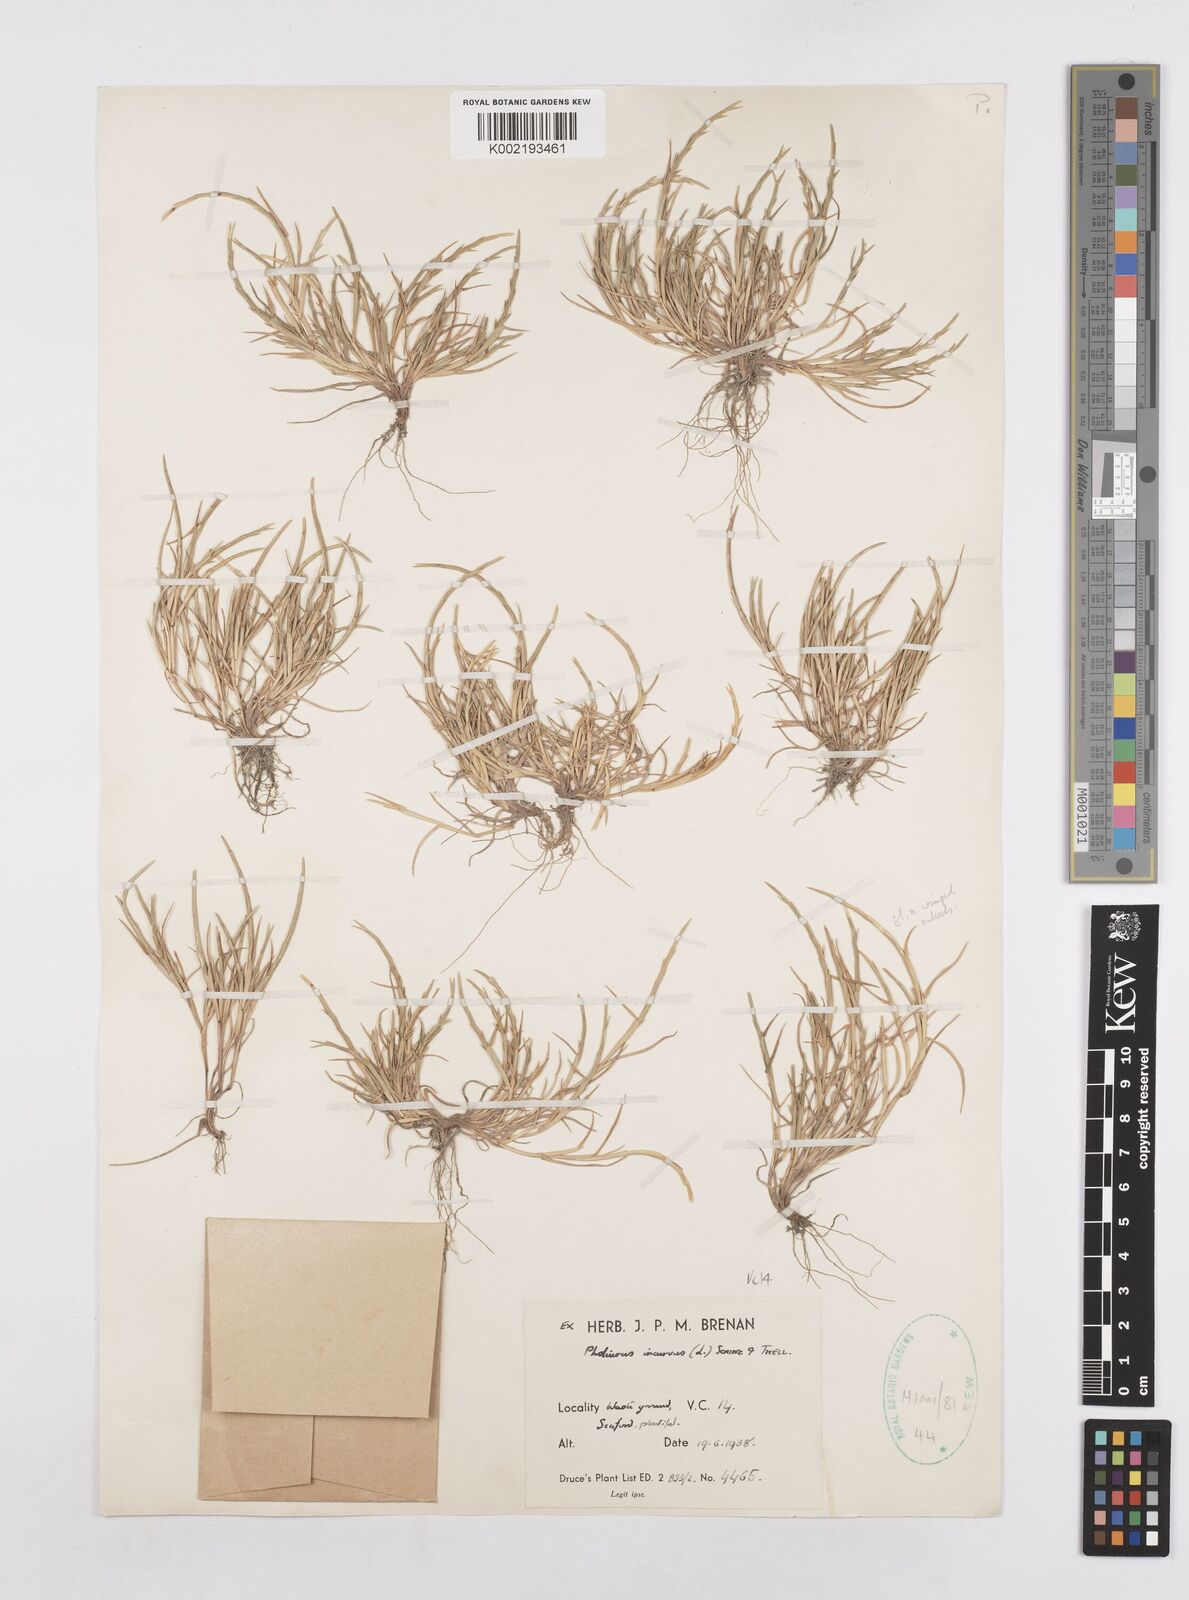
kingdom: Plantae
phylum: Tracheophyta
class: Liliopsida
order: Poales
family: Poaceae
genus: Parapholis
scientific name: Parapholis incurva
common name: Curved sicklegrass
